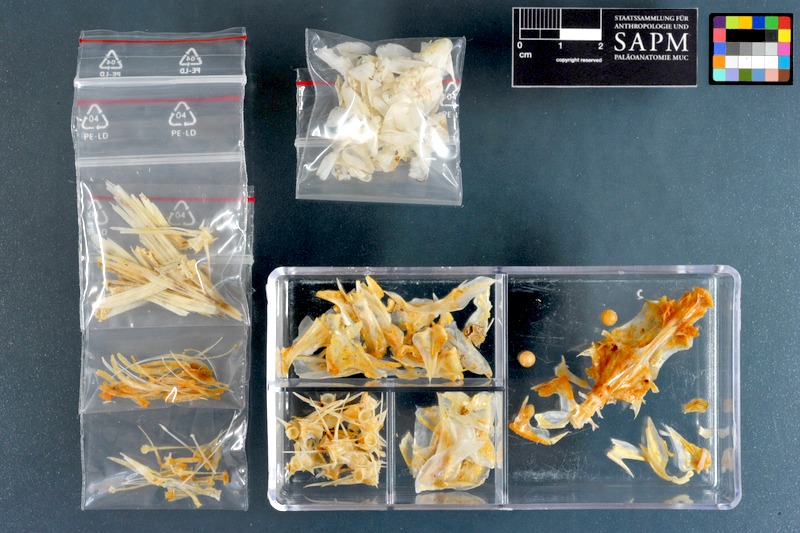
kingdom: Animalia
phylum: Chordata
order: Perciformes
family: Mullidae
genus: Upeneus
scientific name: Upeneus tragula
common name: Freckled goatfish
